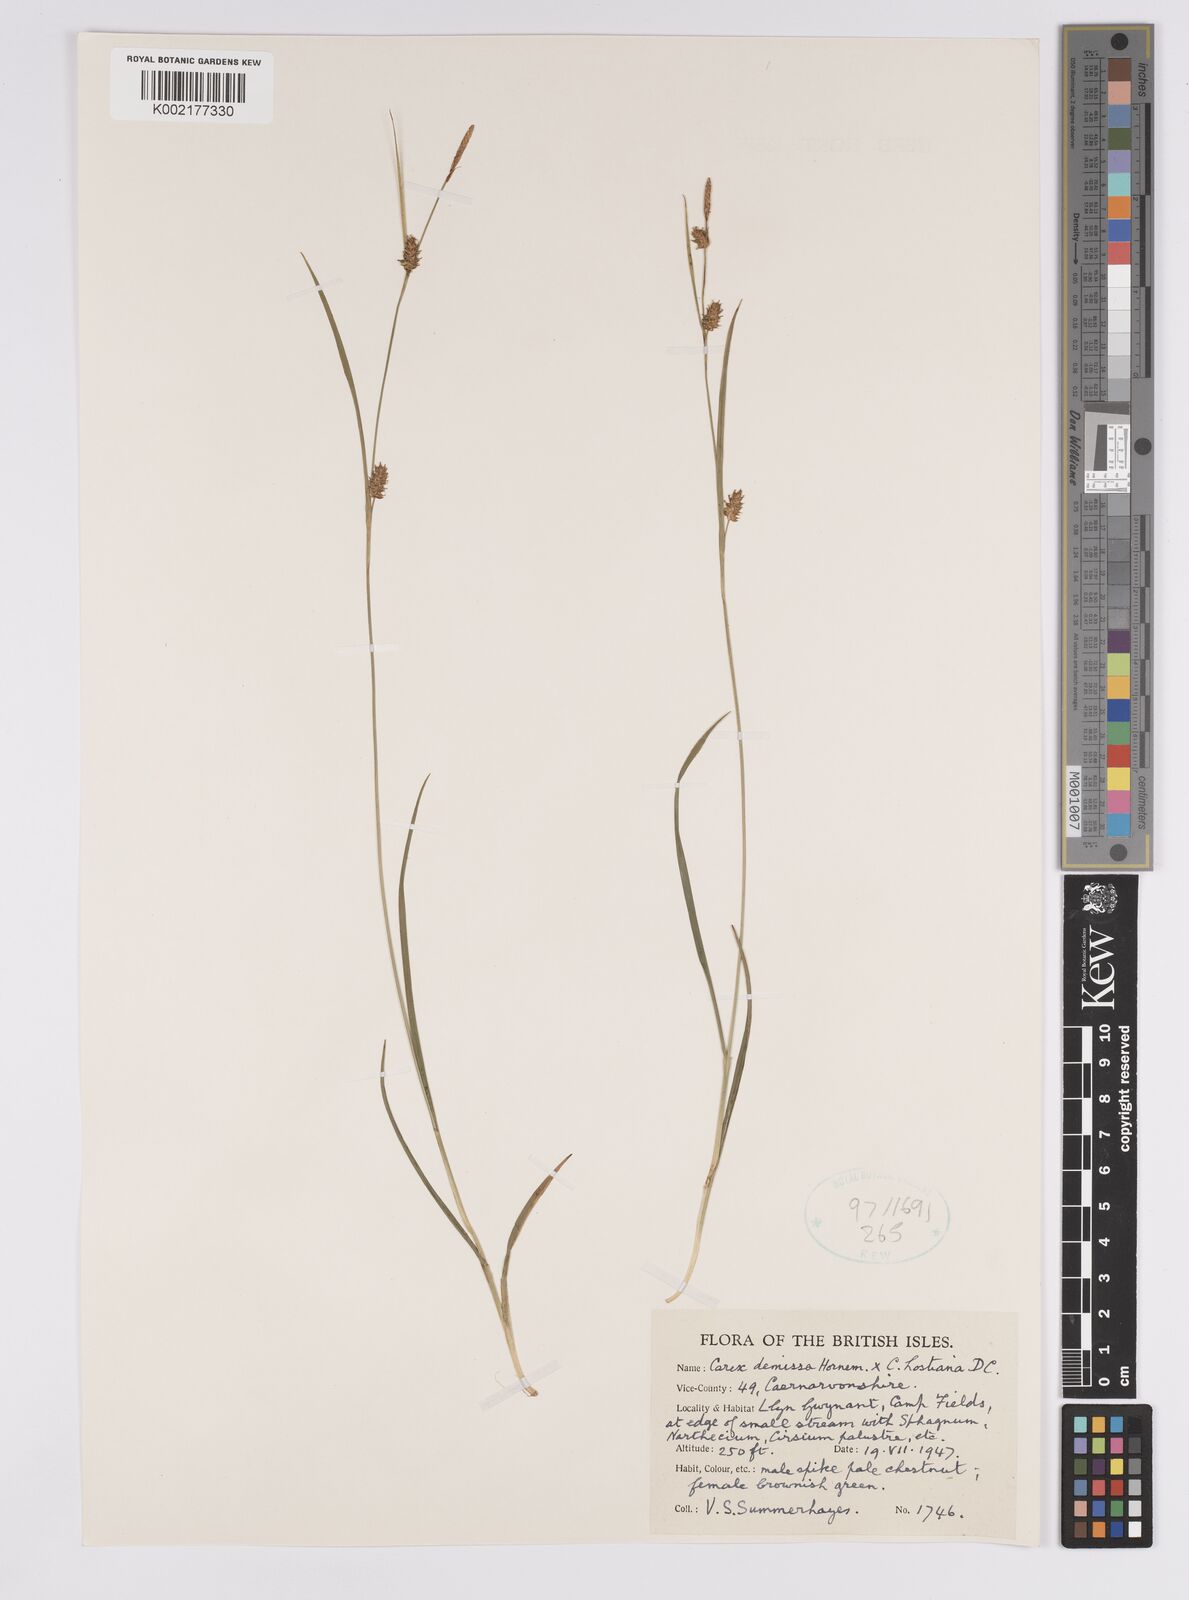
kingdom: Plantae
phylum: Tracheophyta
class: Liliopsida
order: Poales
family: Cyperaceae
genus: Carex
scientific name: Carex hostiana
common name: Tawny sedge
